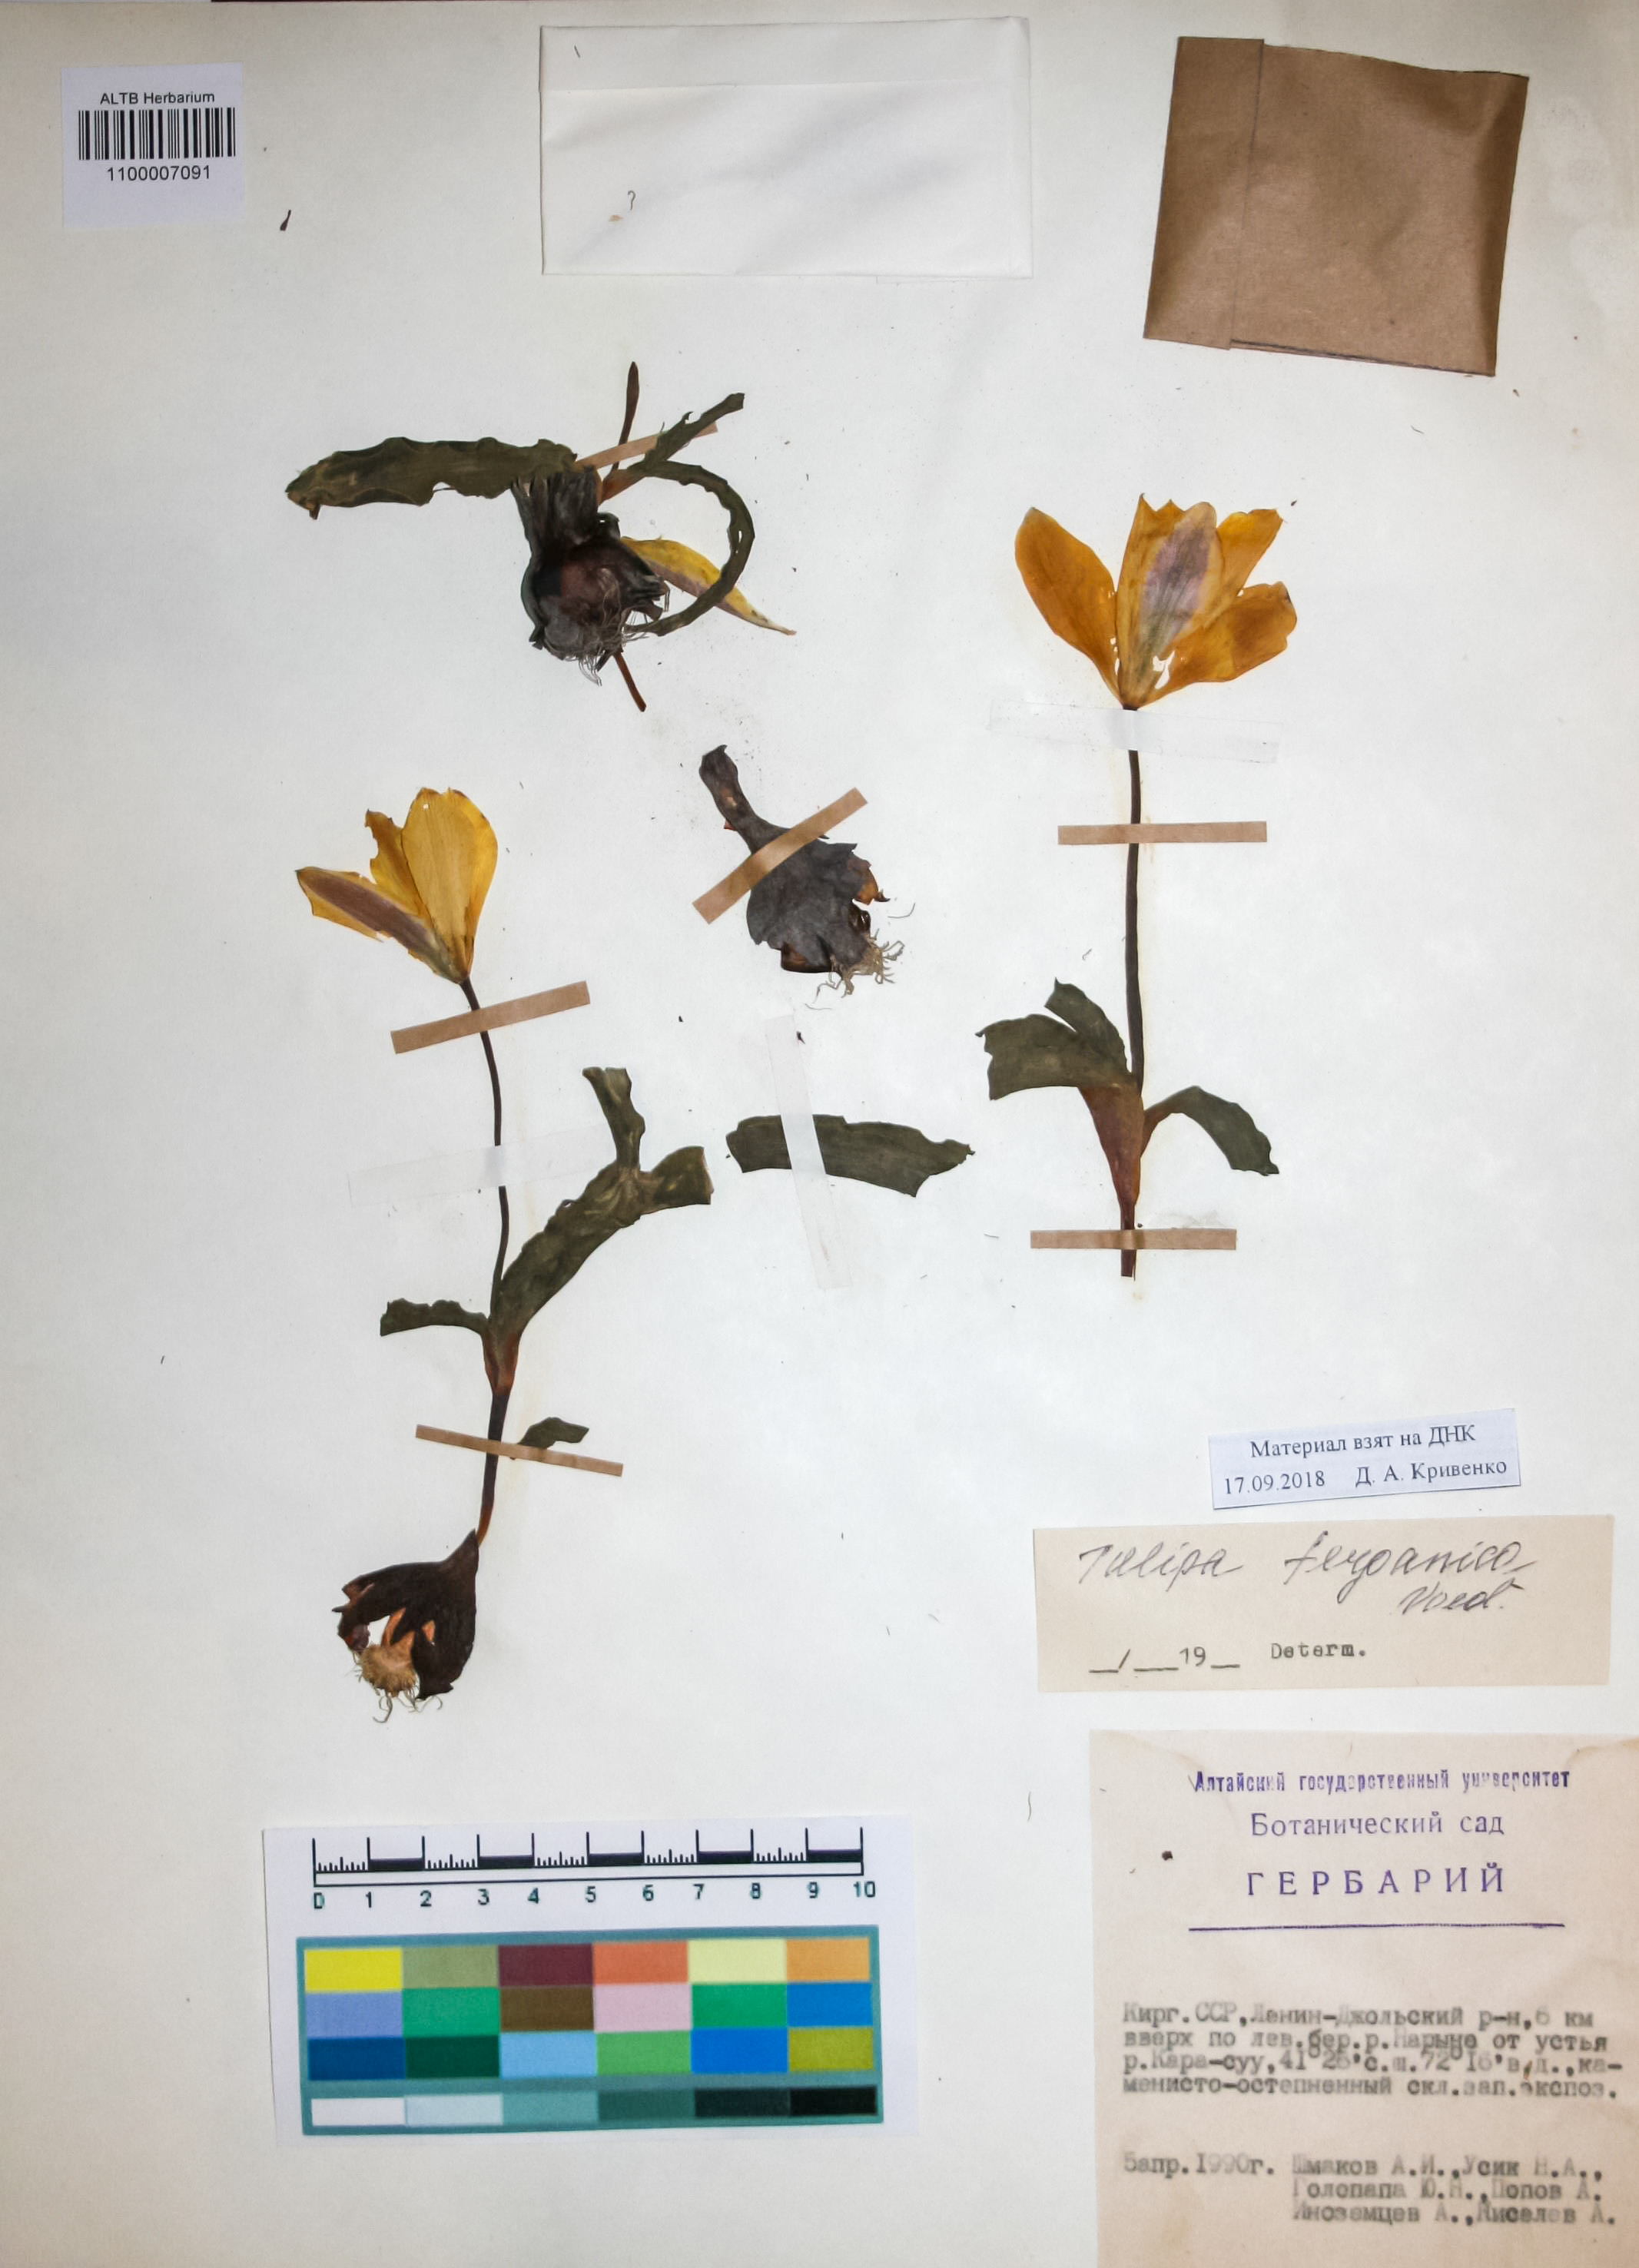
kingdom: Plantae
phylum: Tracheophyta
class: Liliopsida
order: Liliales
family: Liliaceae
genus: Tulipa
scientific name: Tulipa ferganica
